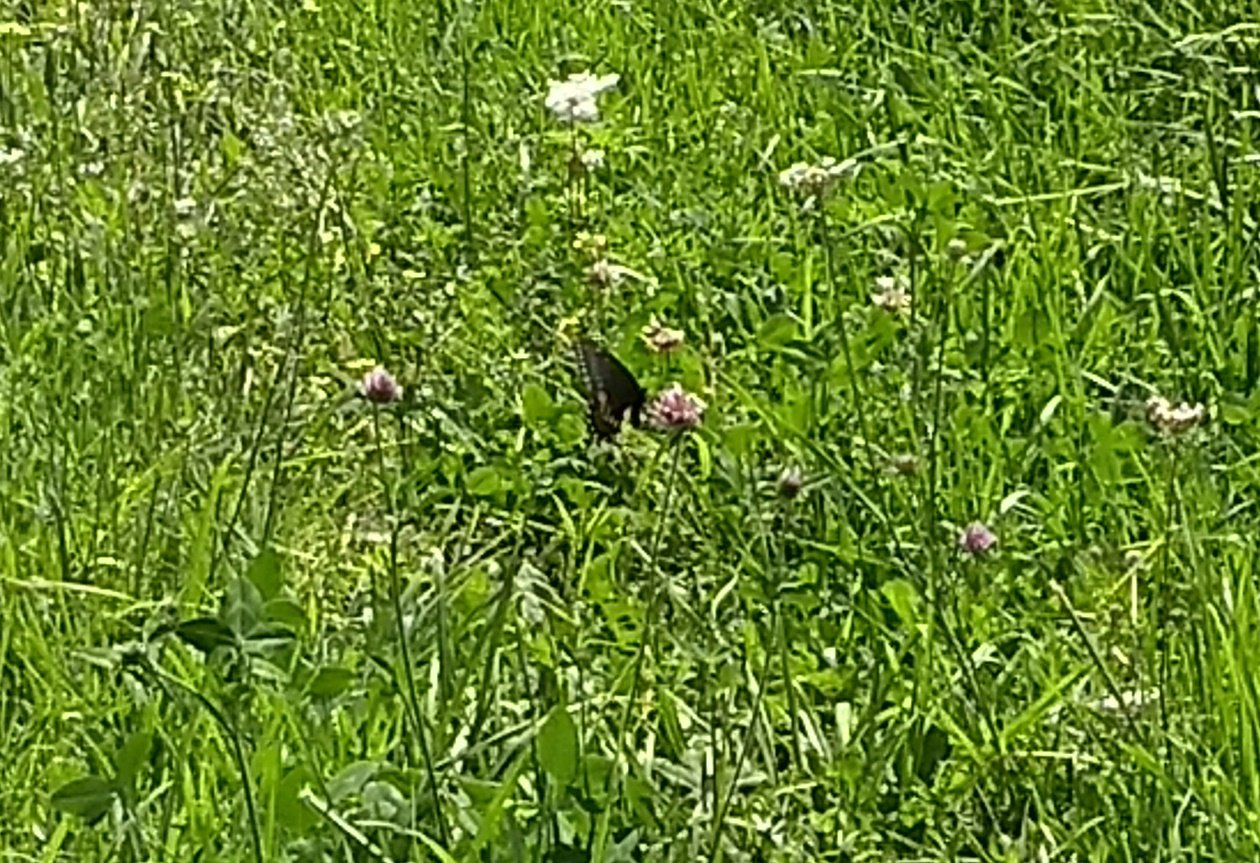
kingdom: Animalia
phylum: Arthropoda
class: Insecta
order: Lepidoptera
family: Papilionidae
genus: Papilio
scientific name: Papilio polyxenes
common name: Black Swallowtail
